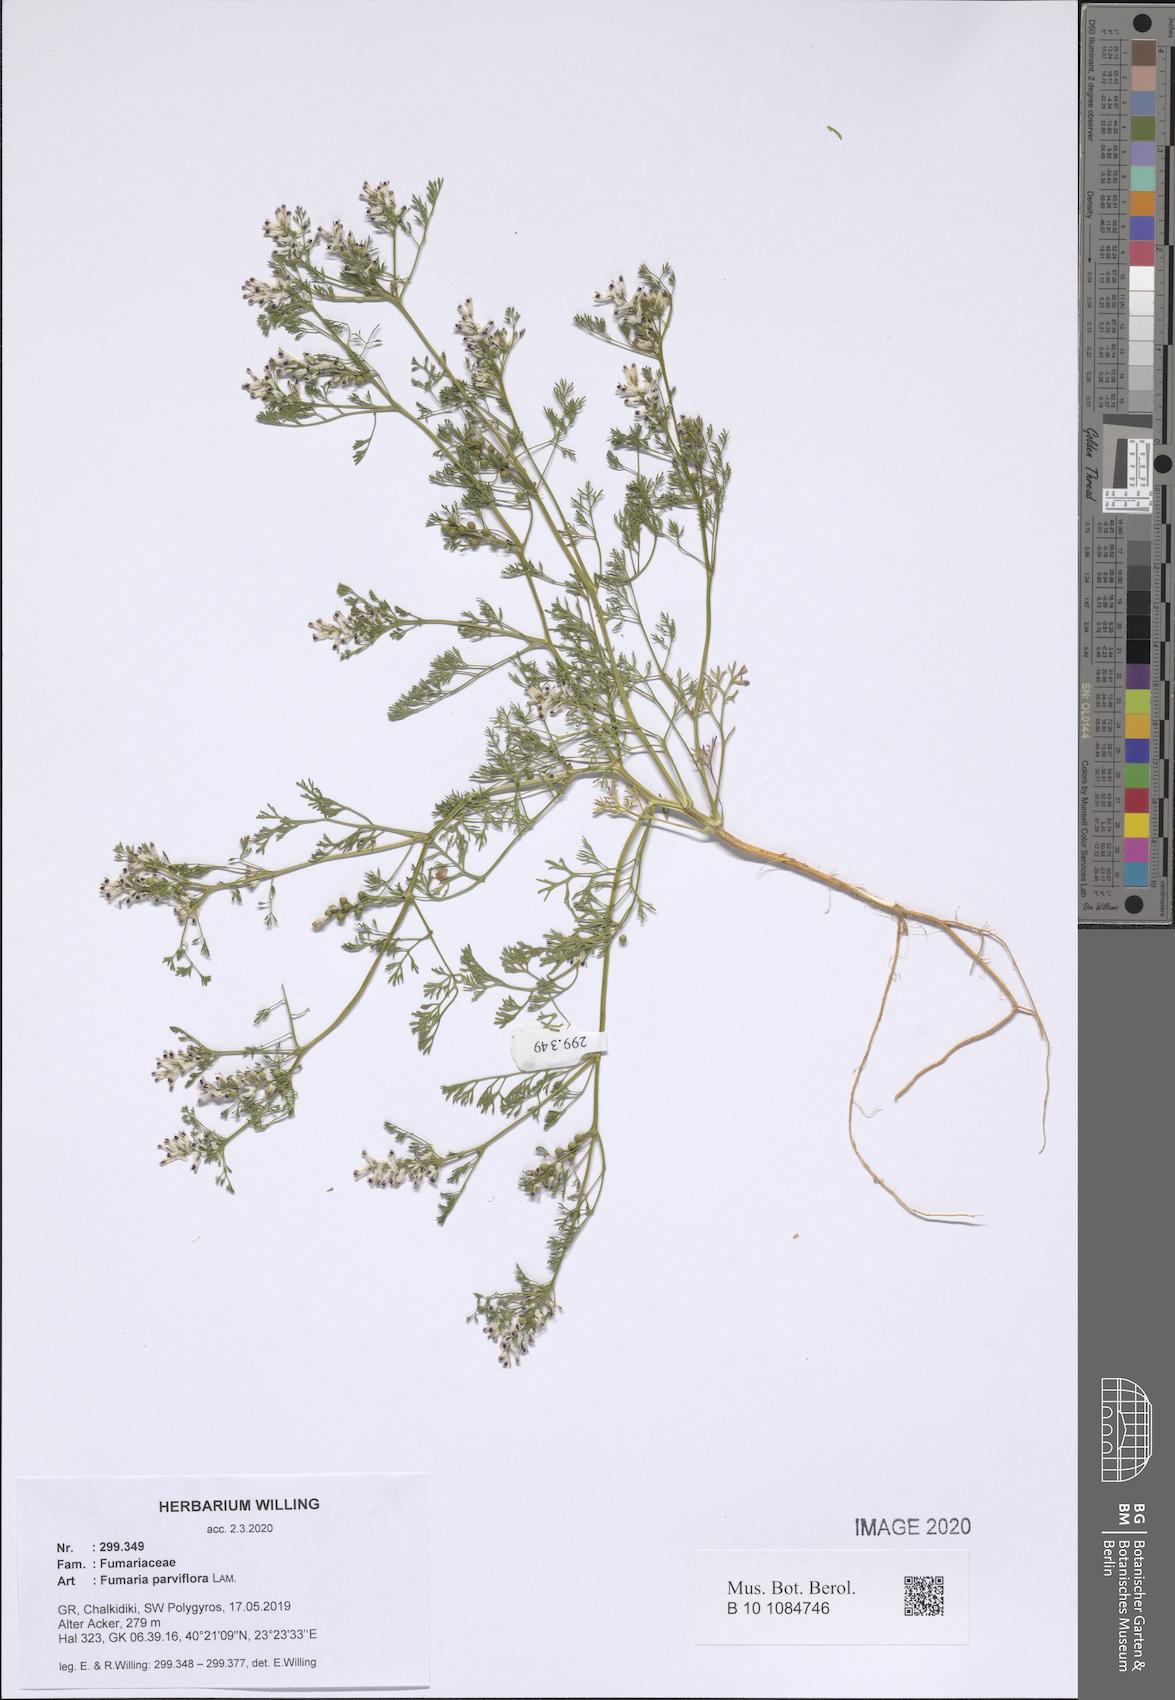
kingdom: Plantae
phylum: Tracheophyta
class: Magnoliopsida
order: Ranunculales
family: Papaveraceae
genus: Fumaria
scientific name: Fumaria parviflora
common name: Fine-leaved fumitory
